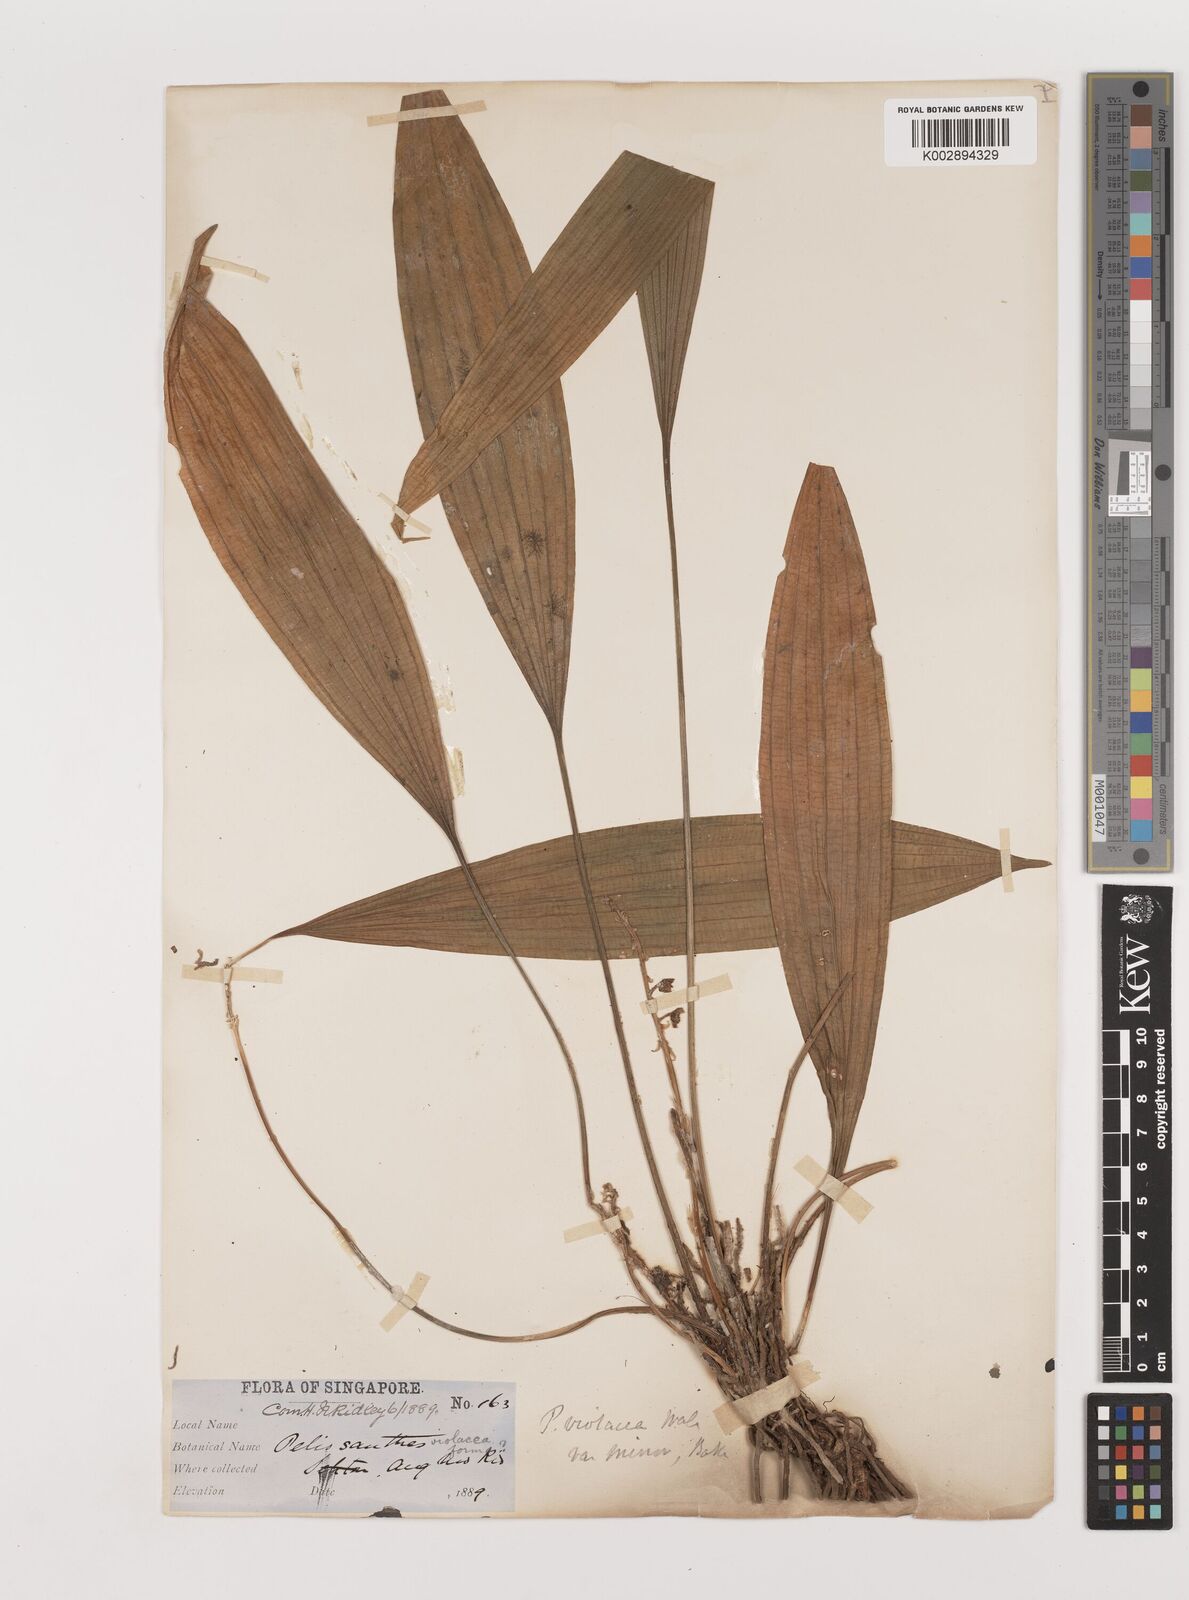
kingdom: Plantae
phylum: Tracheophyta
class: Liliopsida
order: Asparagales
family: Asparagaceae
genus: Peliosanthes
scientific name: Peliosanthes teta
